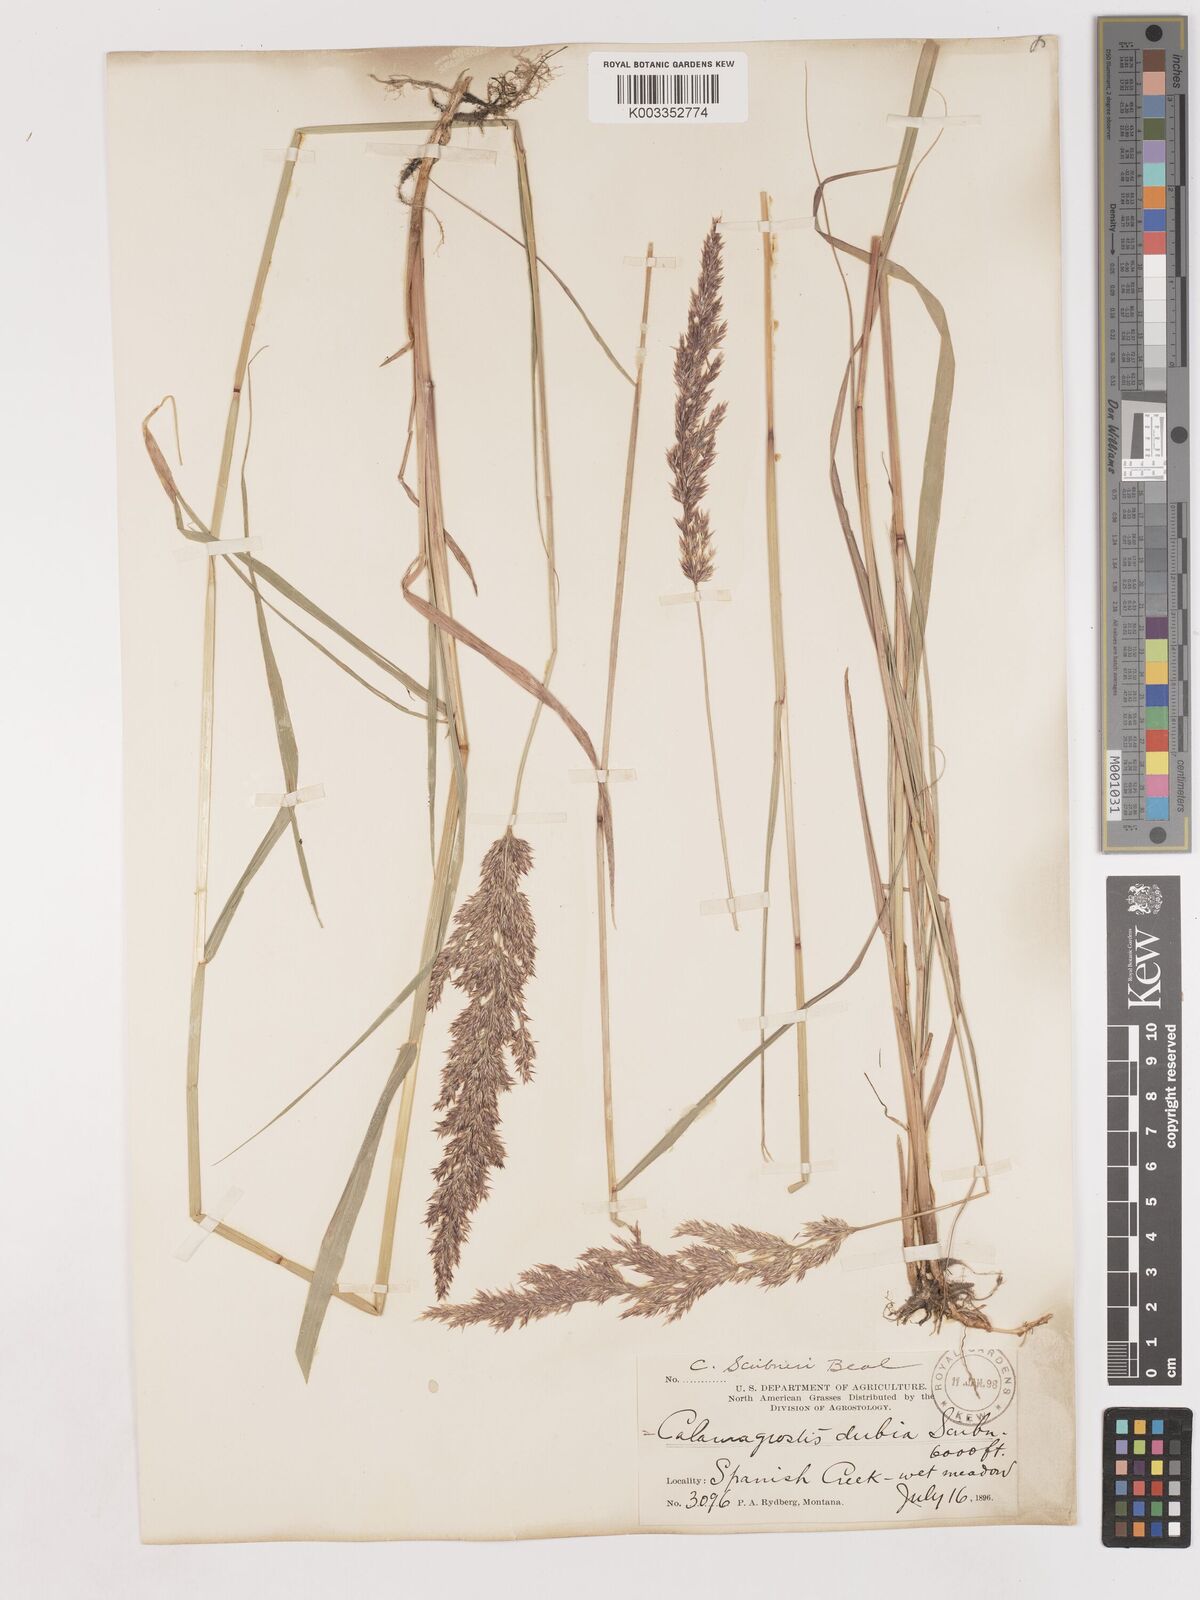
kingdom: Plantae
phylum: Tracheophyta
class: Liliopsida
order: Poales
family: Poaceae
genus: Calamagrostis
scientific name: Calamagrostis canadensis
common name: Canada bluejoint
